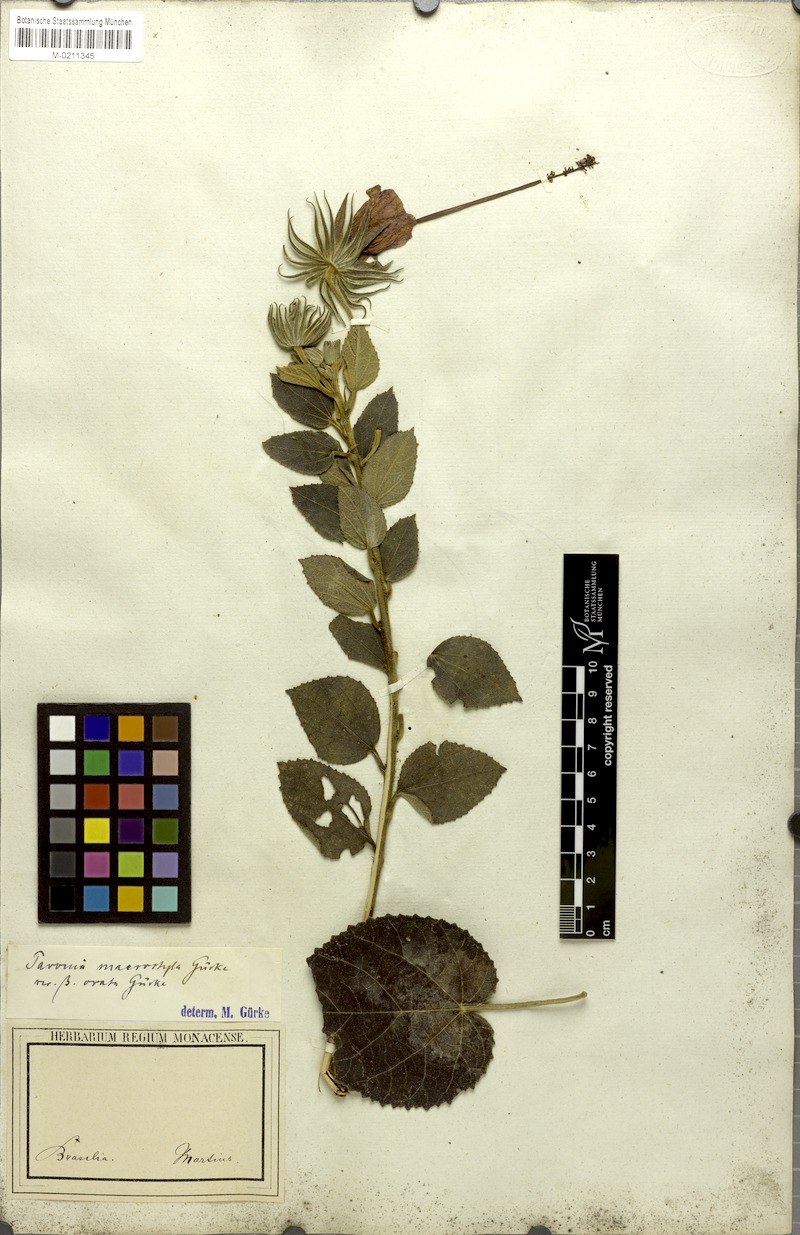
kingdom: Plantae
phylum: Tracheophyta
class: Magnoliopsida
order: Malvales
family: Malvaceae
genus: Pavonia
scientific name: Pavonia macrostyla
